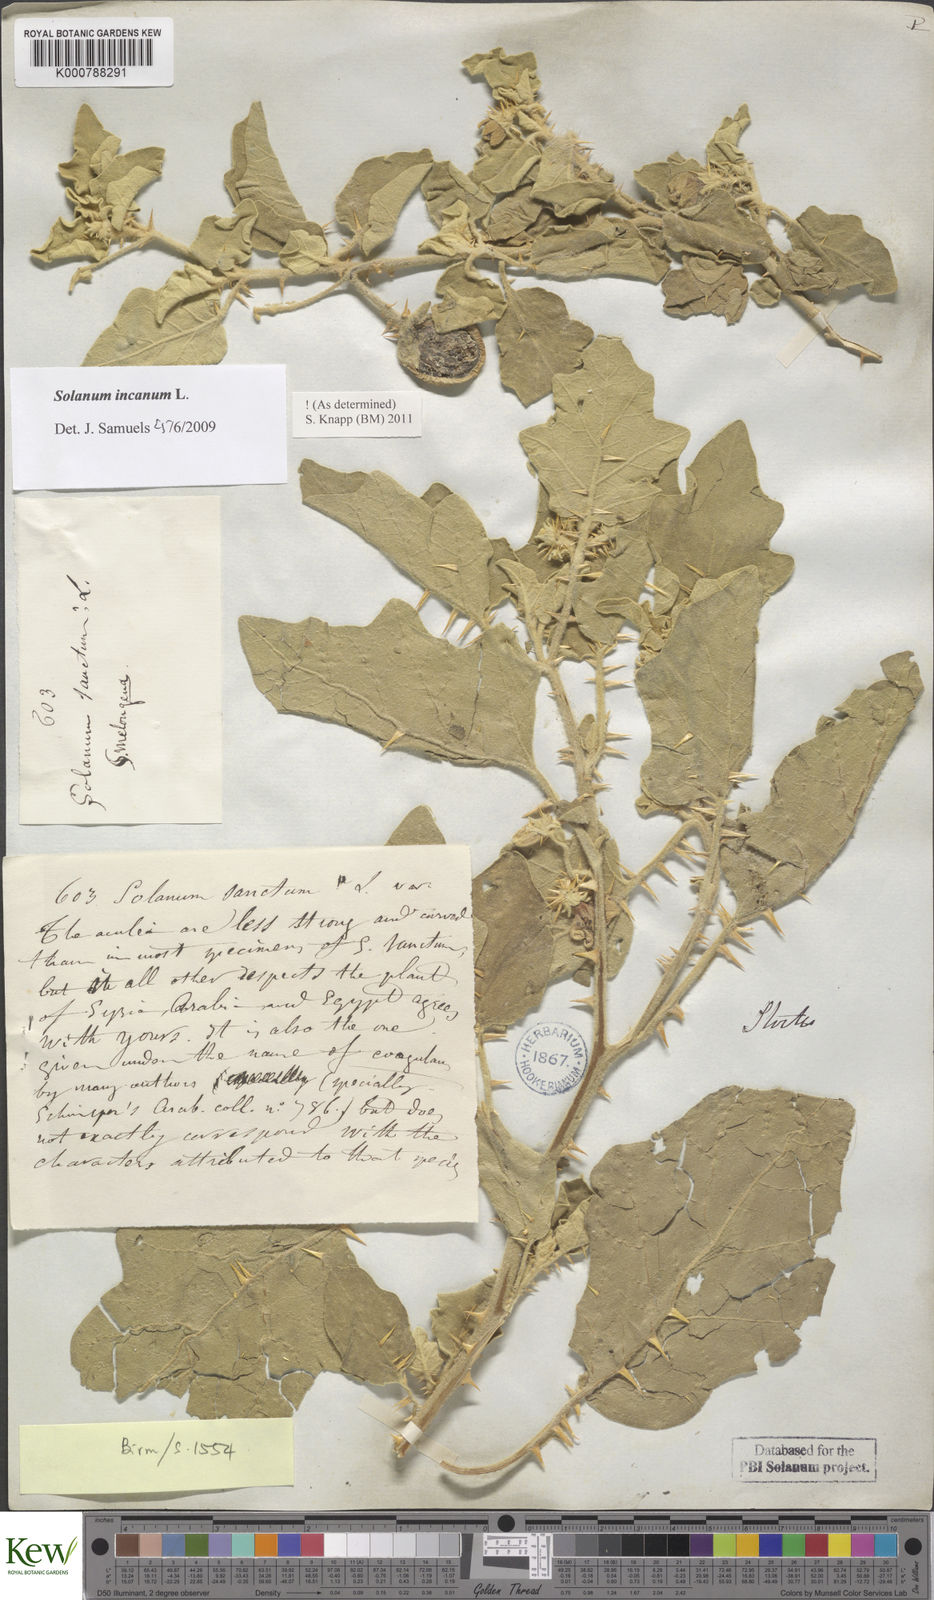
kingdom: Plantae
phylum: Tracheophyta
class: Magnoliopsida
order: Solanales
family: Solanaceae
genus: Solanum
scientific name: Solanum incanum
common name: Bitter apple
